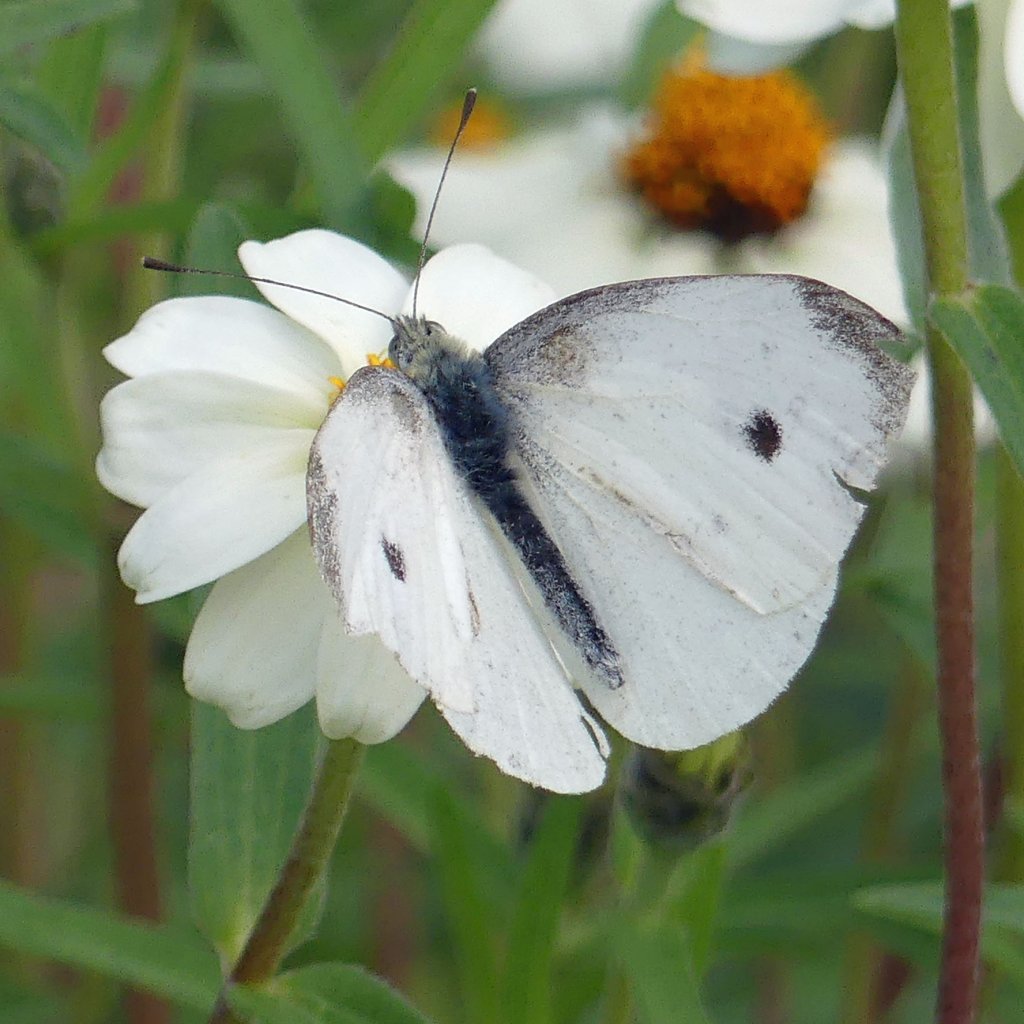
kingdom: Animalia
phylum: Arthropoda
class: Insecta
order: Lepidoptera
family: Pieridae
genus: Pieris
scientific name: Pieris rapae
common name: Cabbage White
